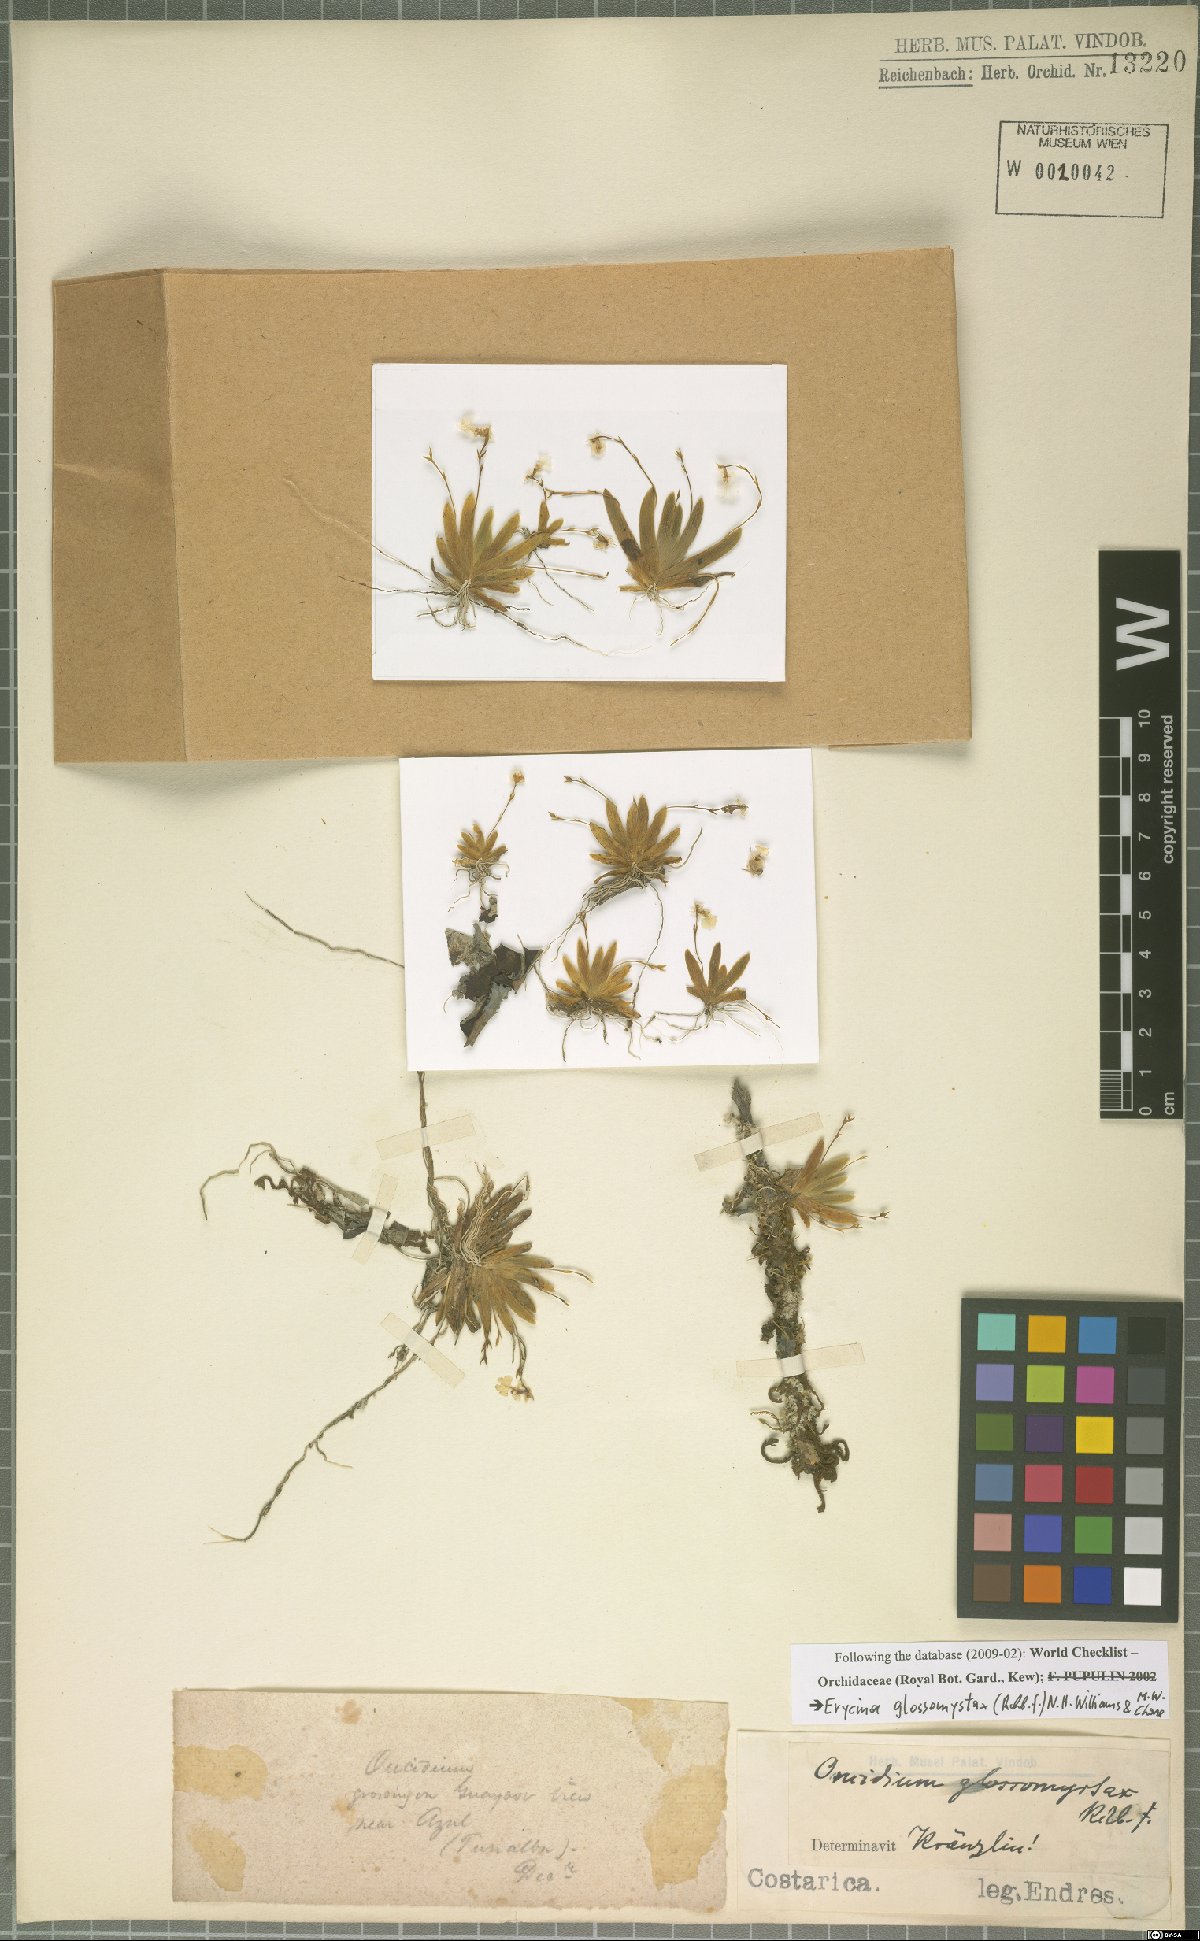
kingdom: Plantae
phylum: Tracheophyta
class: Liliopsida
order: Asparagales
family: Orchidaceae
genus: Erycina
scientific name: Erycina glossomystax
